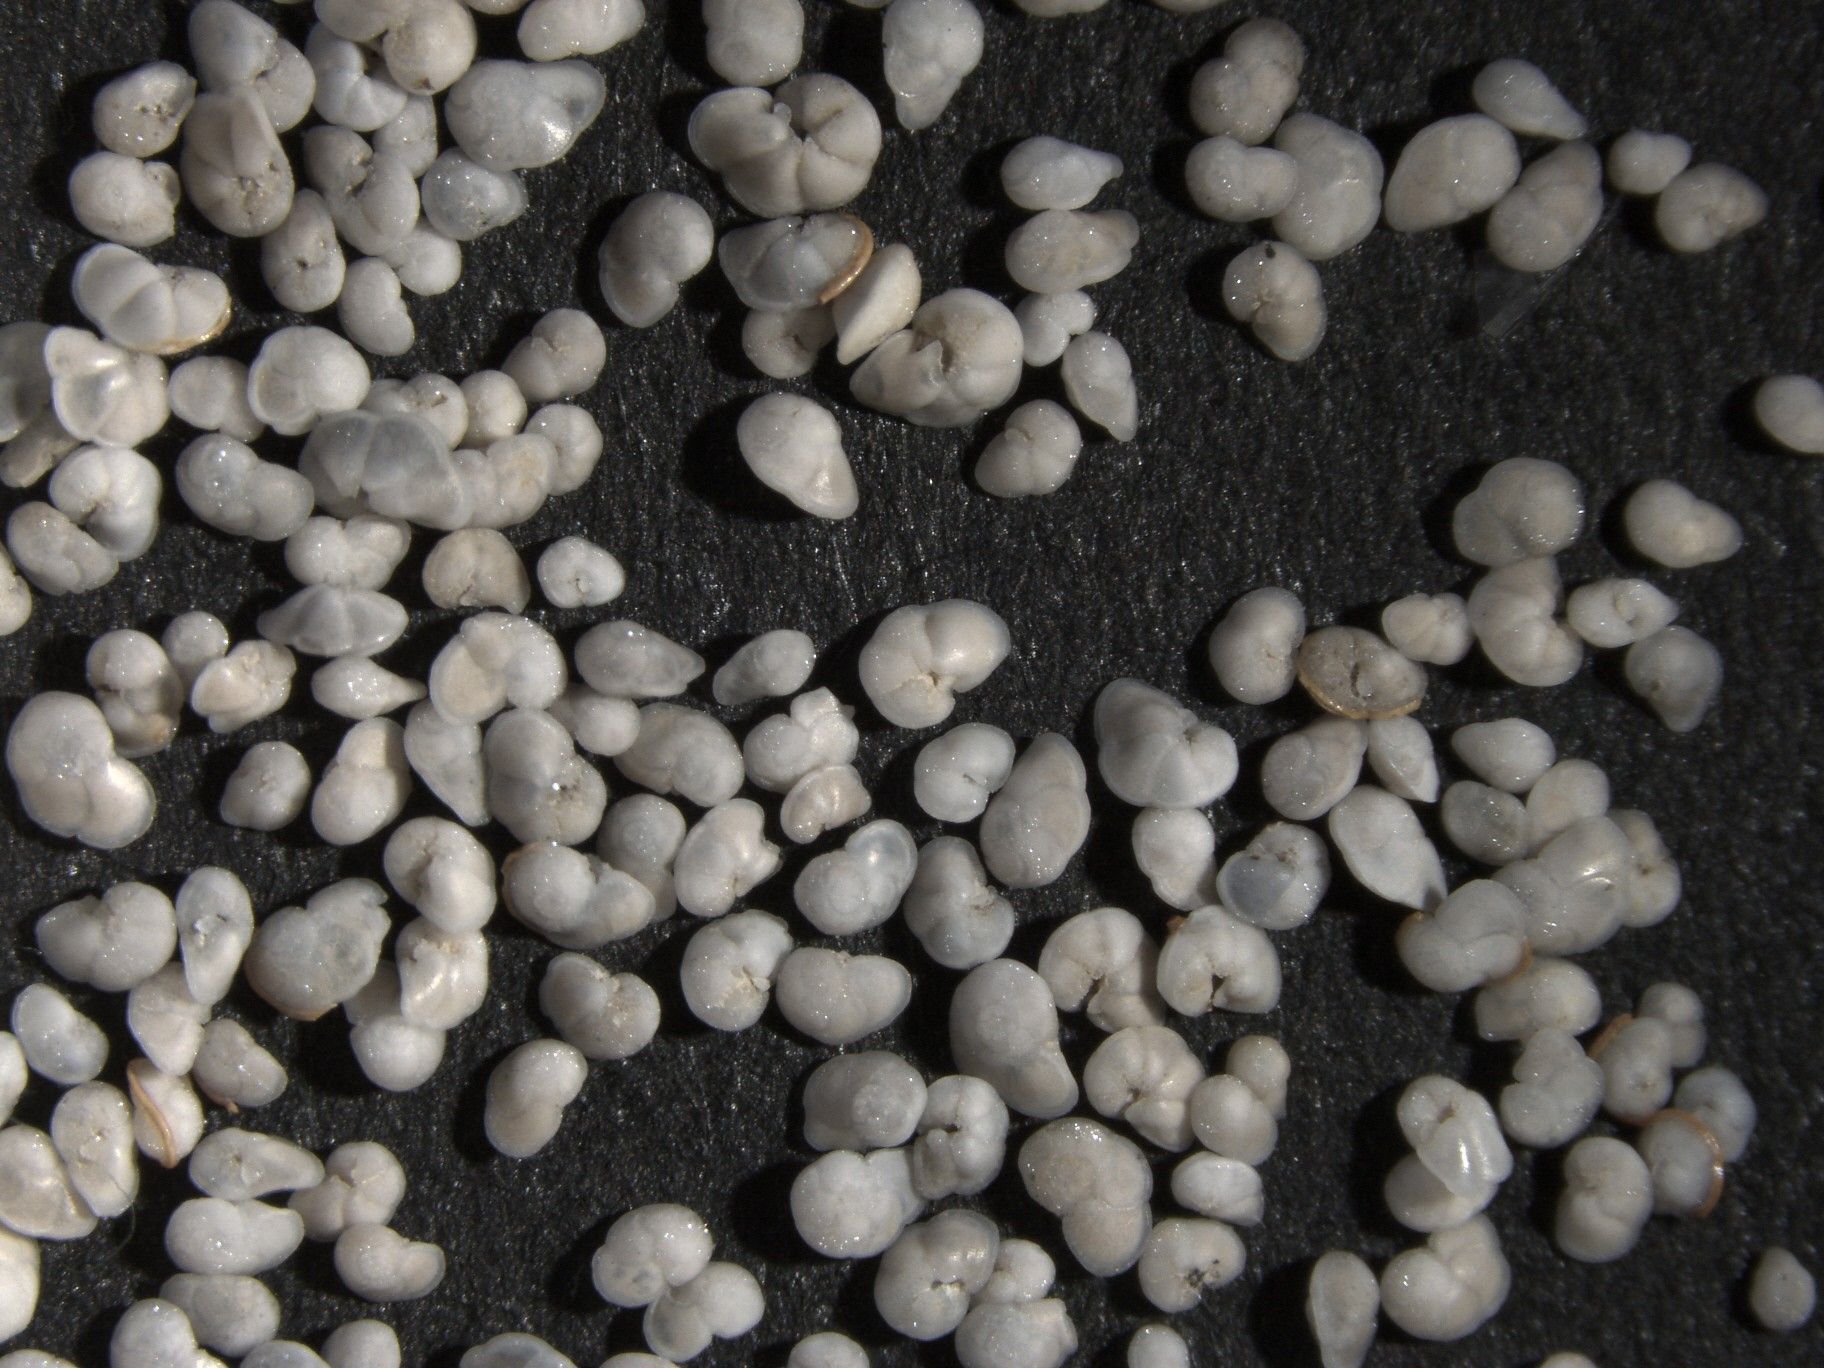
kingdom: Chromista
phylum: Foraminifera
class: Globothalamea
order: Rotaliida
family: Globorotaliidae
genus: Globorotalia
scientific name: Globorotalia tumida
